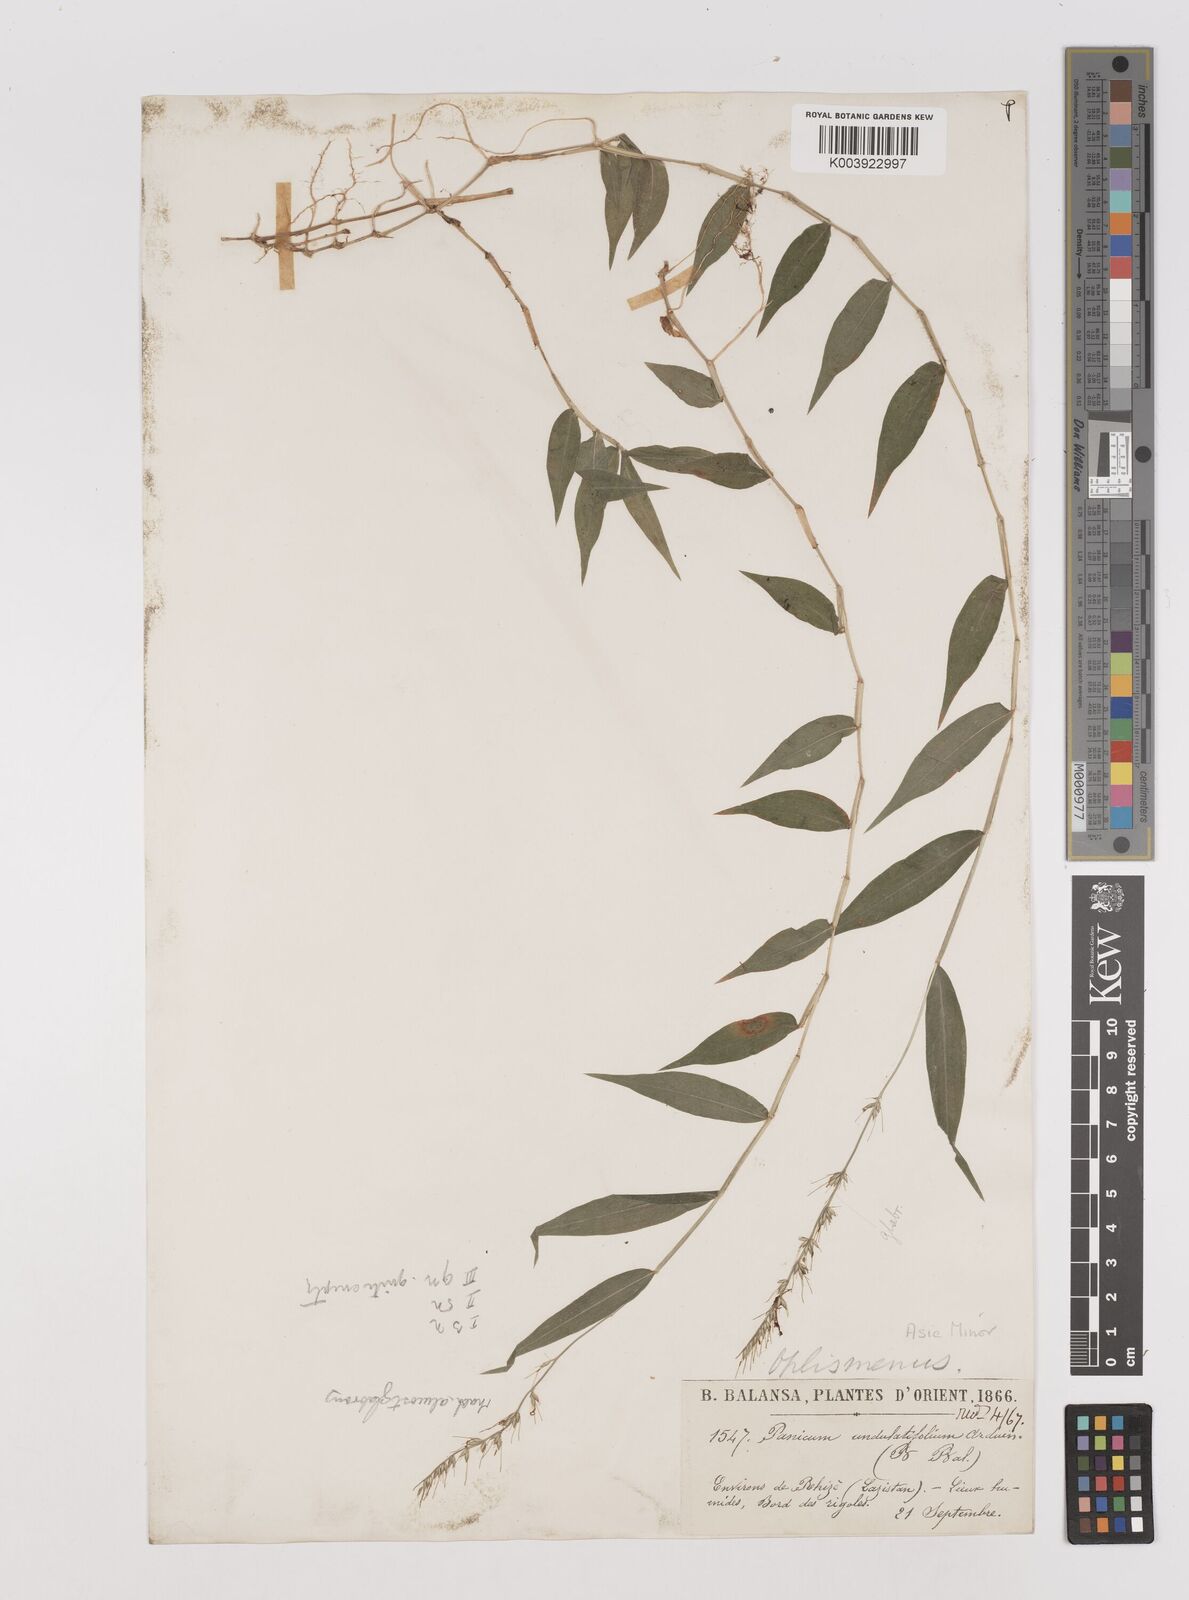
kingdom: Plantae
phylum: Tracheophyta
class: Liliopsida
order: Poales
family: Poaceae
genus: Oplismenus
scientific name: Oplismenus undulatifolius
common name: Wavyleaf basketgrass
